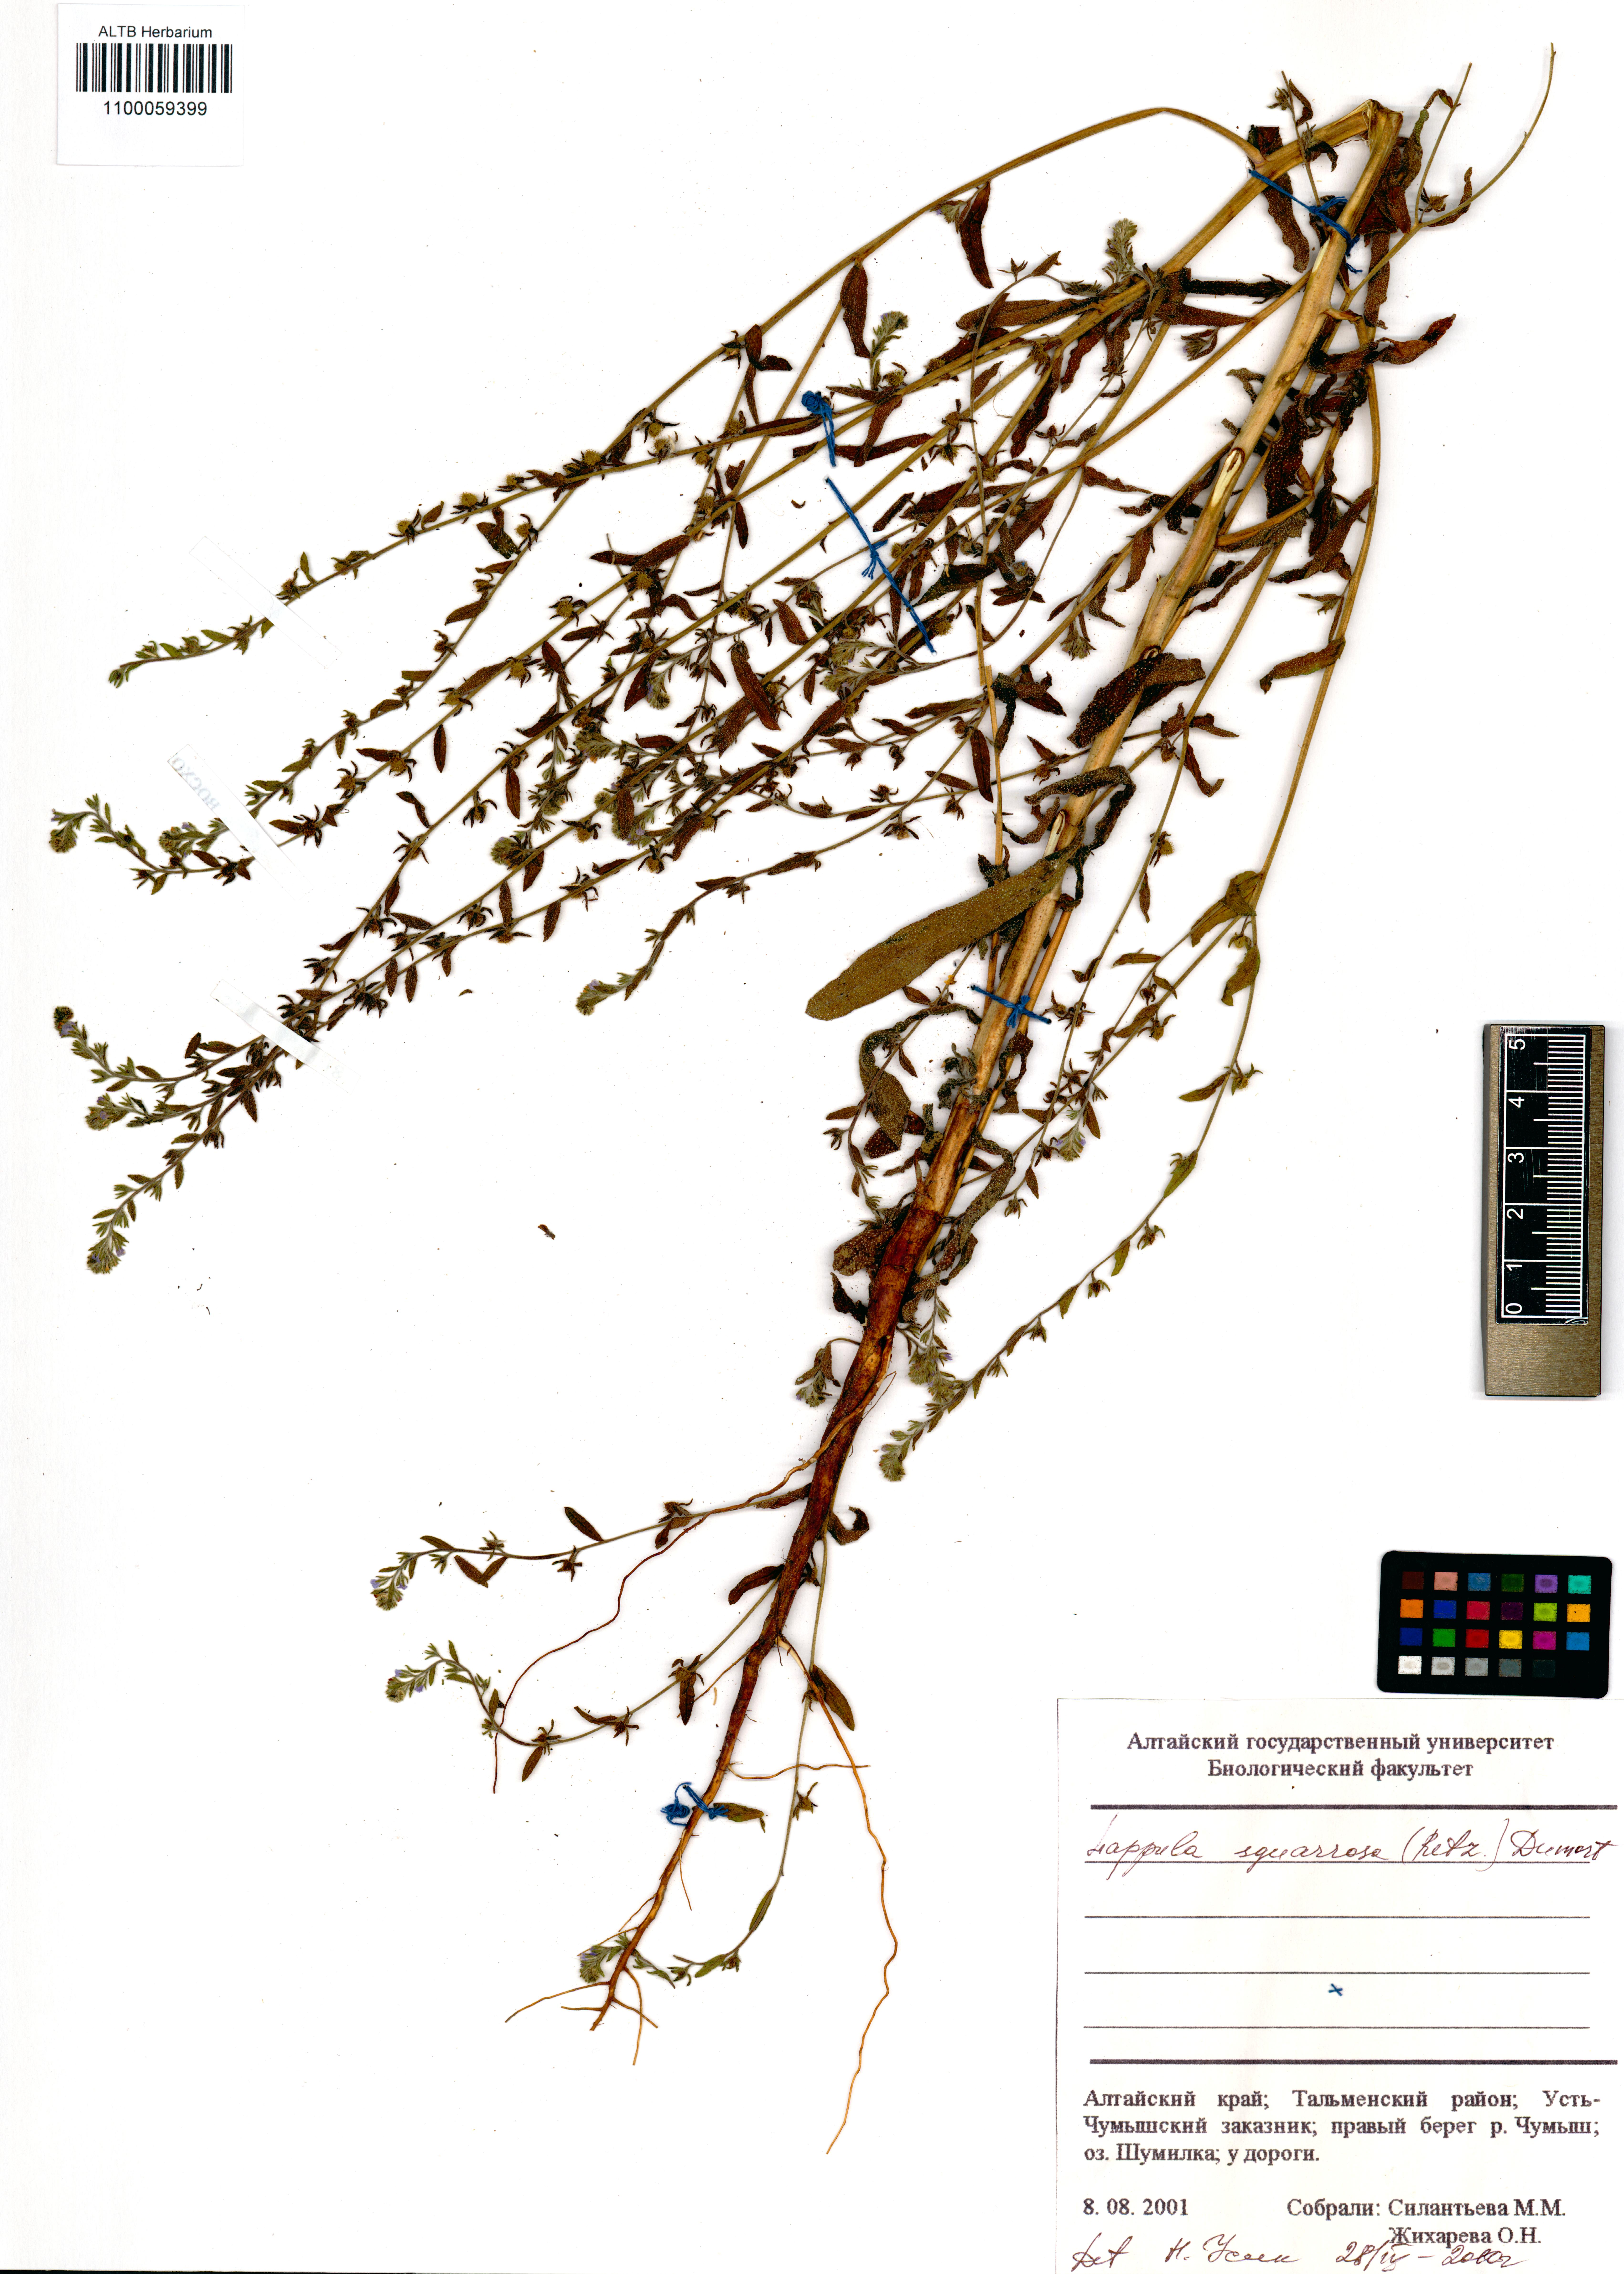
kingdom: Plantae
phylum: Tracheophyta
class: Magnoliopsida
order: Boraginales
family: Boraginaceae
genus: Lappula
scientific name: Lappula squarrosa
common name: European stickseed
